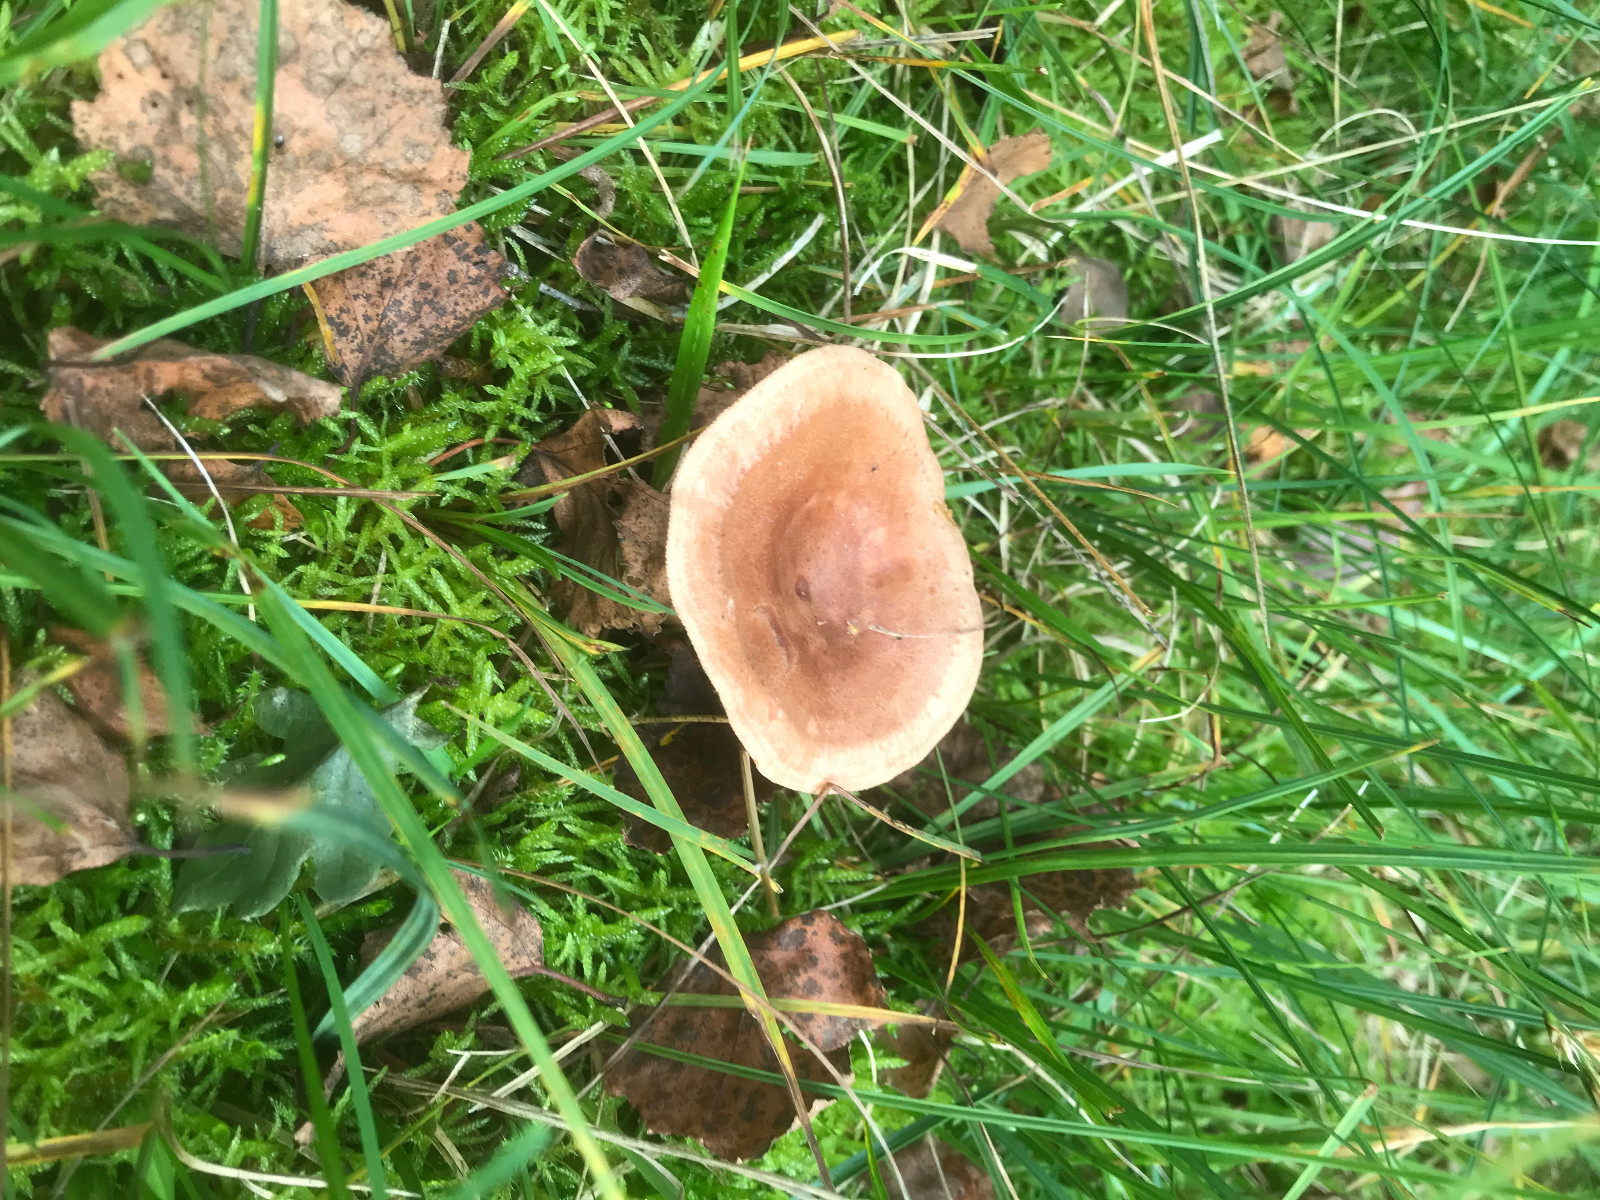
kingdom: Fungi
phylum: Basidiomycota
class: Agaricomycetes
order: Russulales
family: Russulaceae
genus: Lactarius
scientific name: Lactarius quietus
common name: ege-mælkehat
